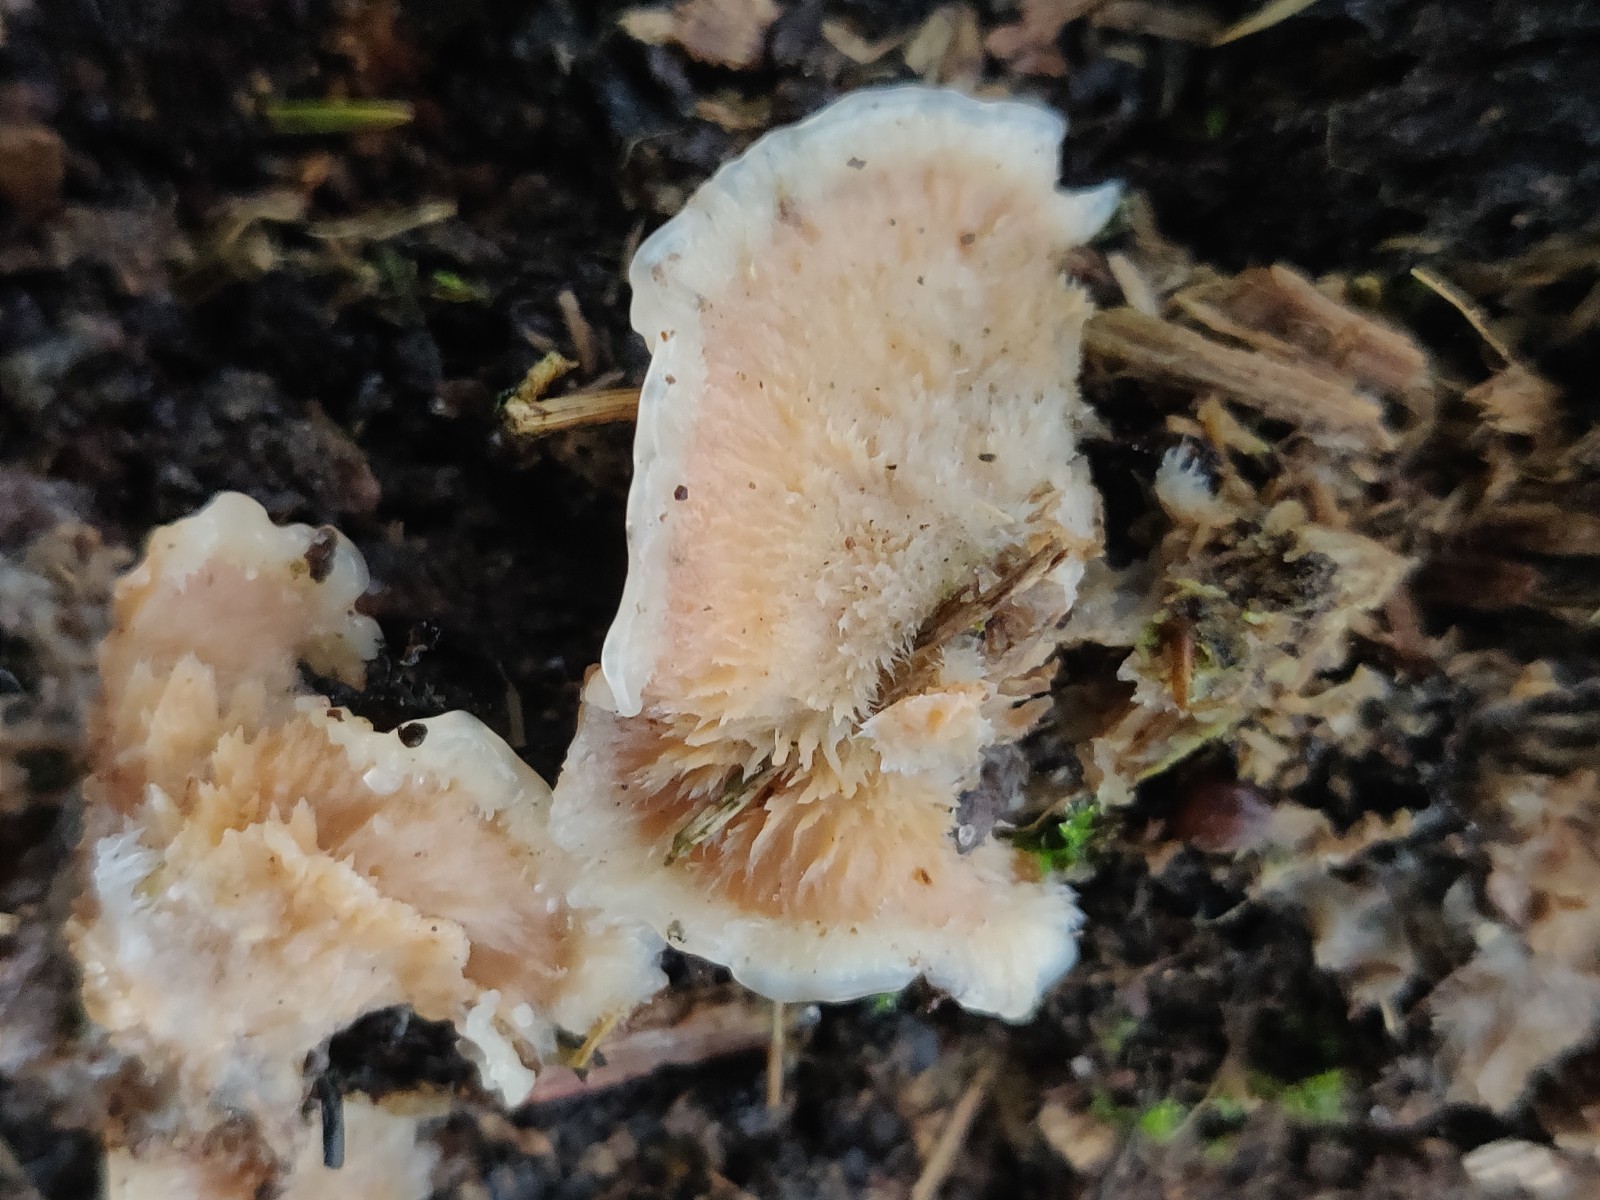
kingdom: Fungi
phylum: Basidiomycota
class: Agaricomycetes
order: Polyporales
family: Meruliaceae
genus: Phlebia
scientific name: Phlebia tremellosa
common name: bævrende åresvamp
